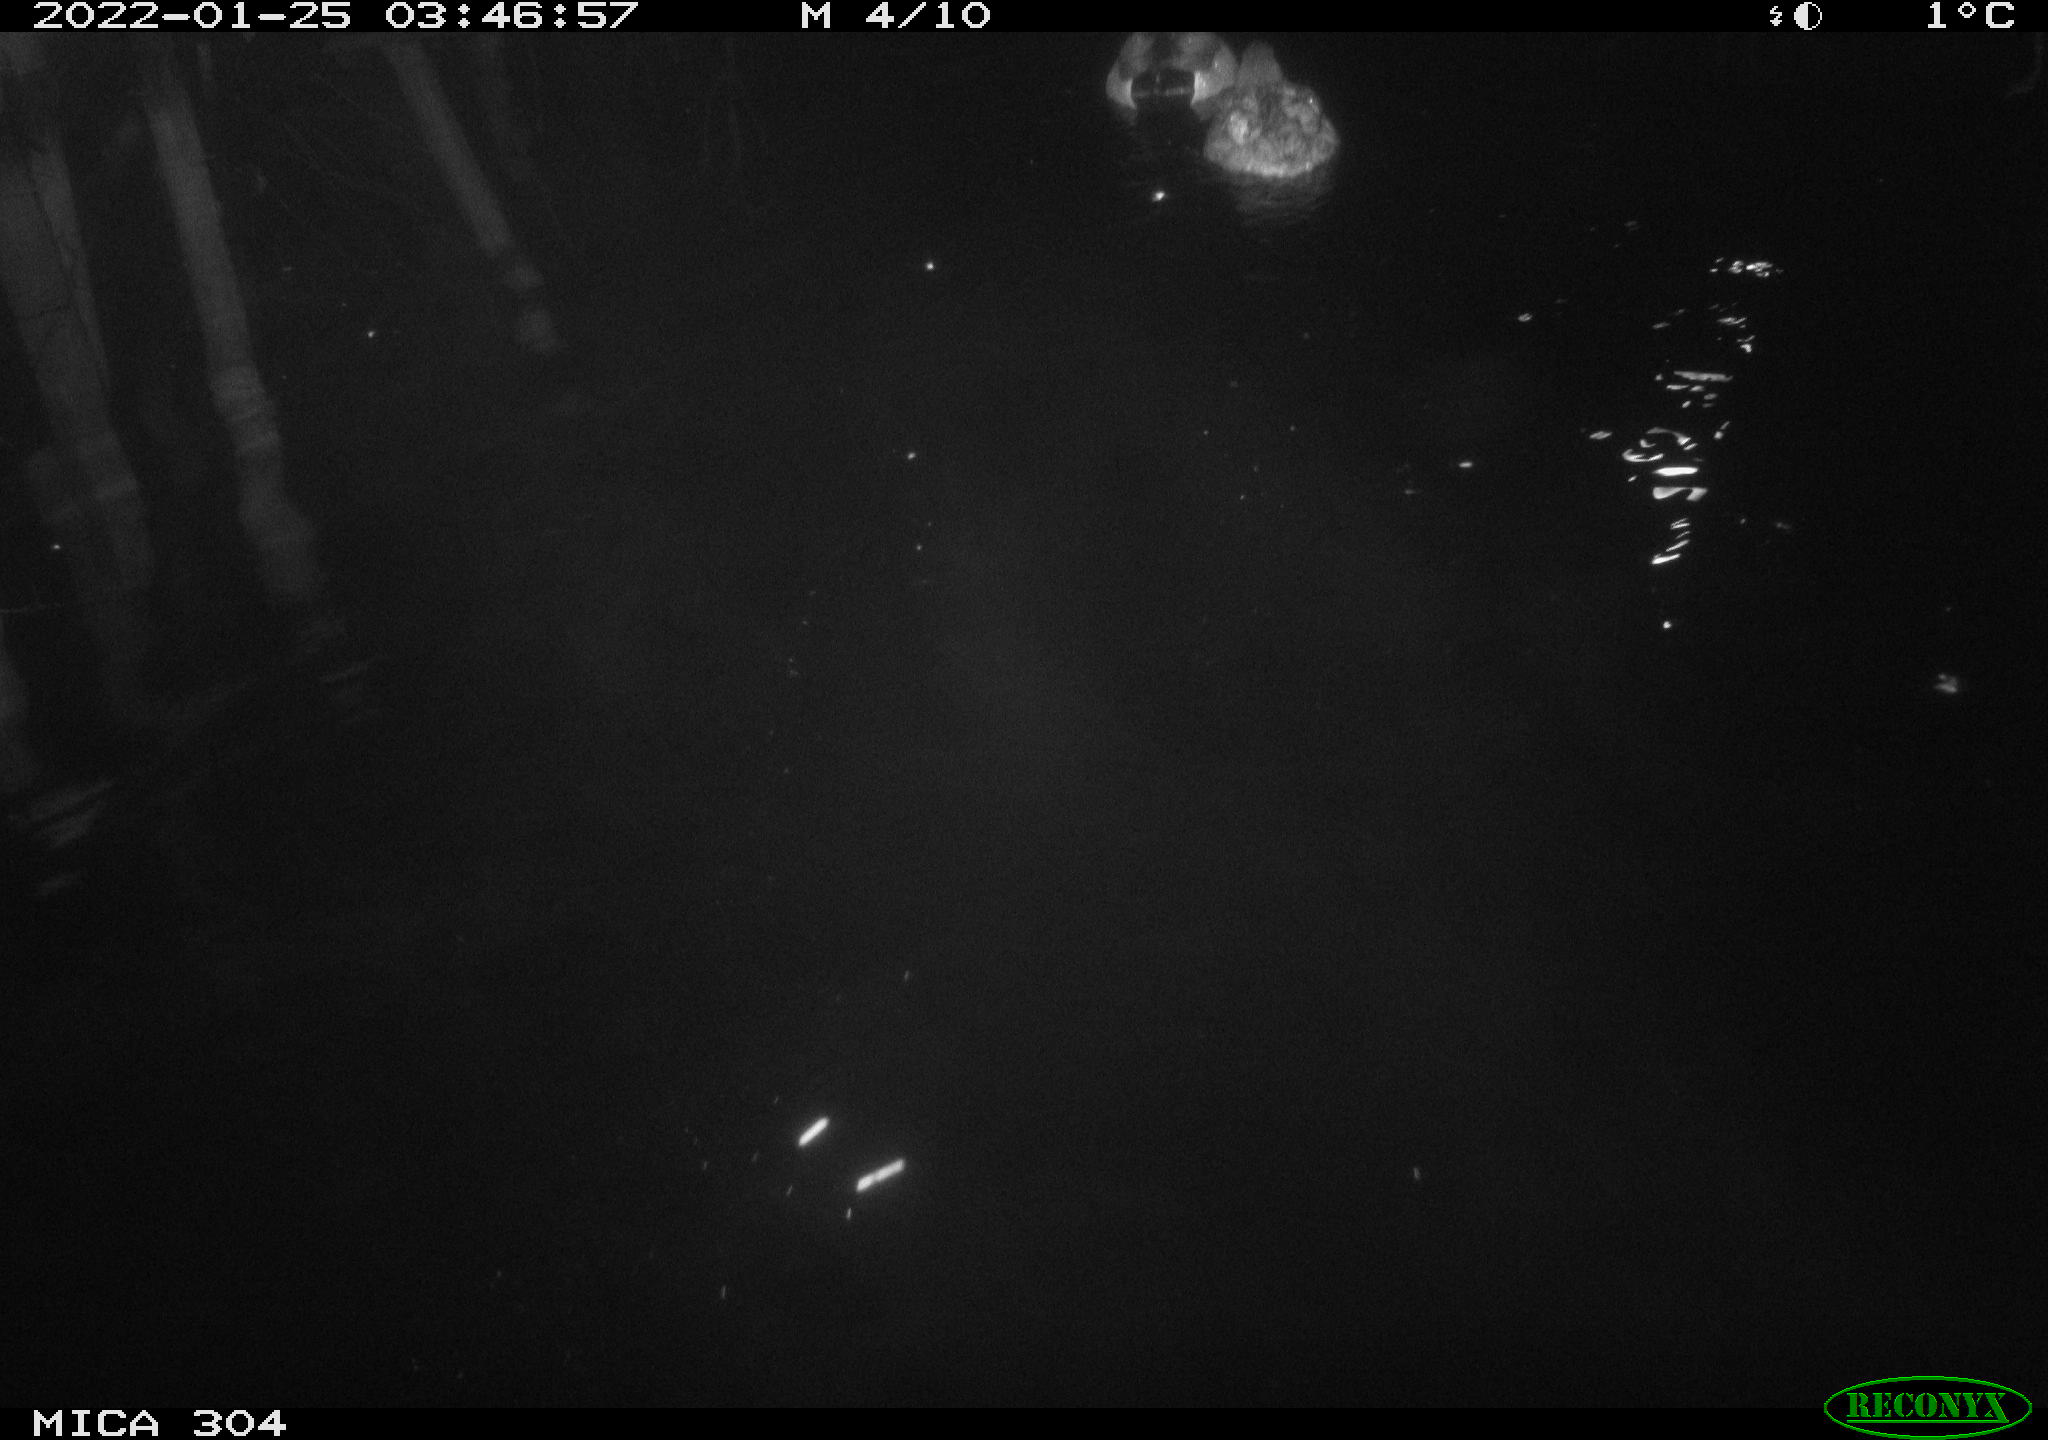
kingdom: Animalia
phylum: Chordata
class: Aves
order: Anseriformes
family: Anatidae
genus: Anas
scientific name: Anas
